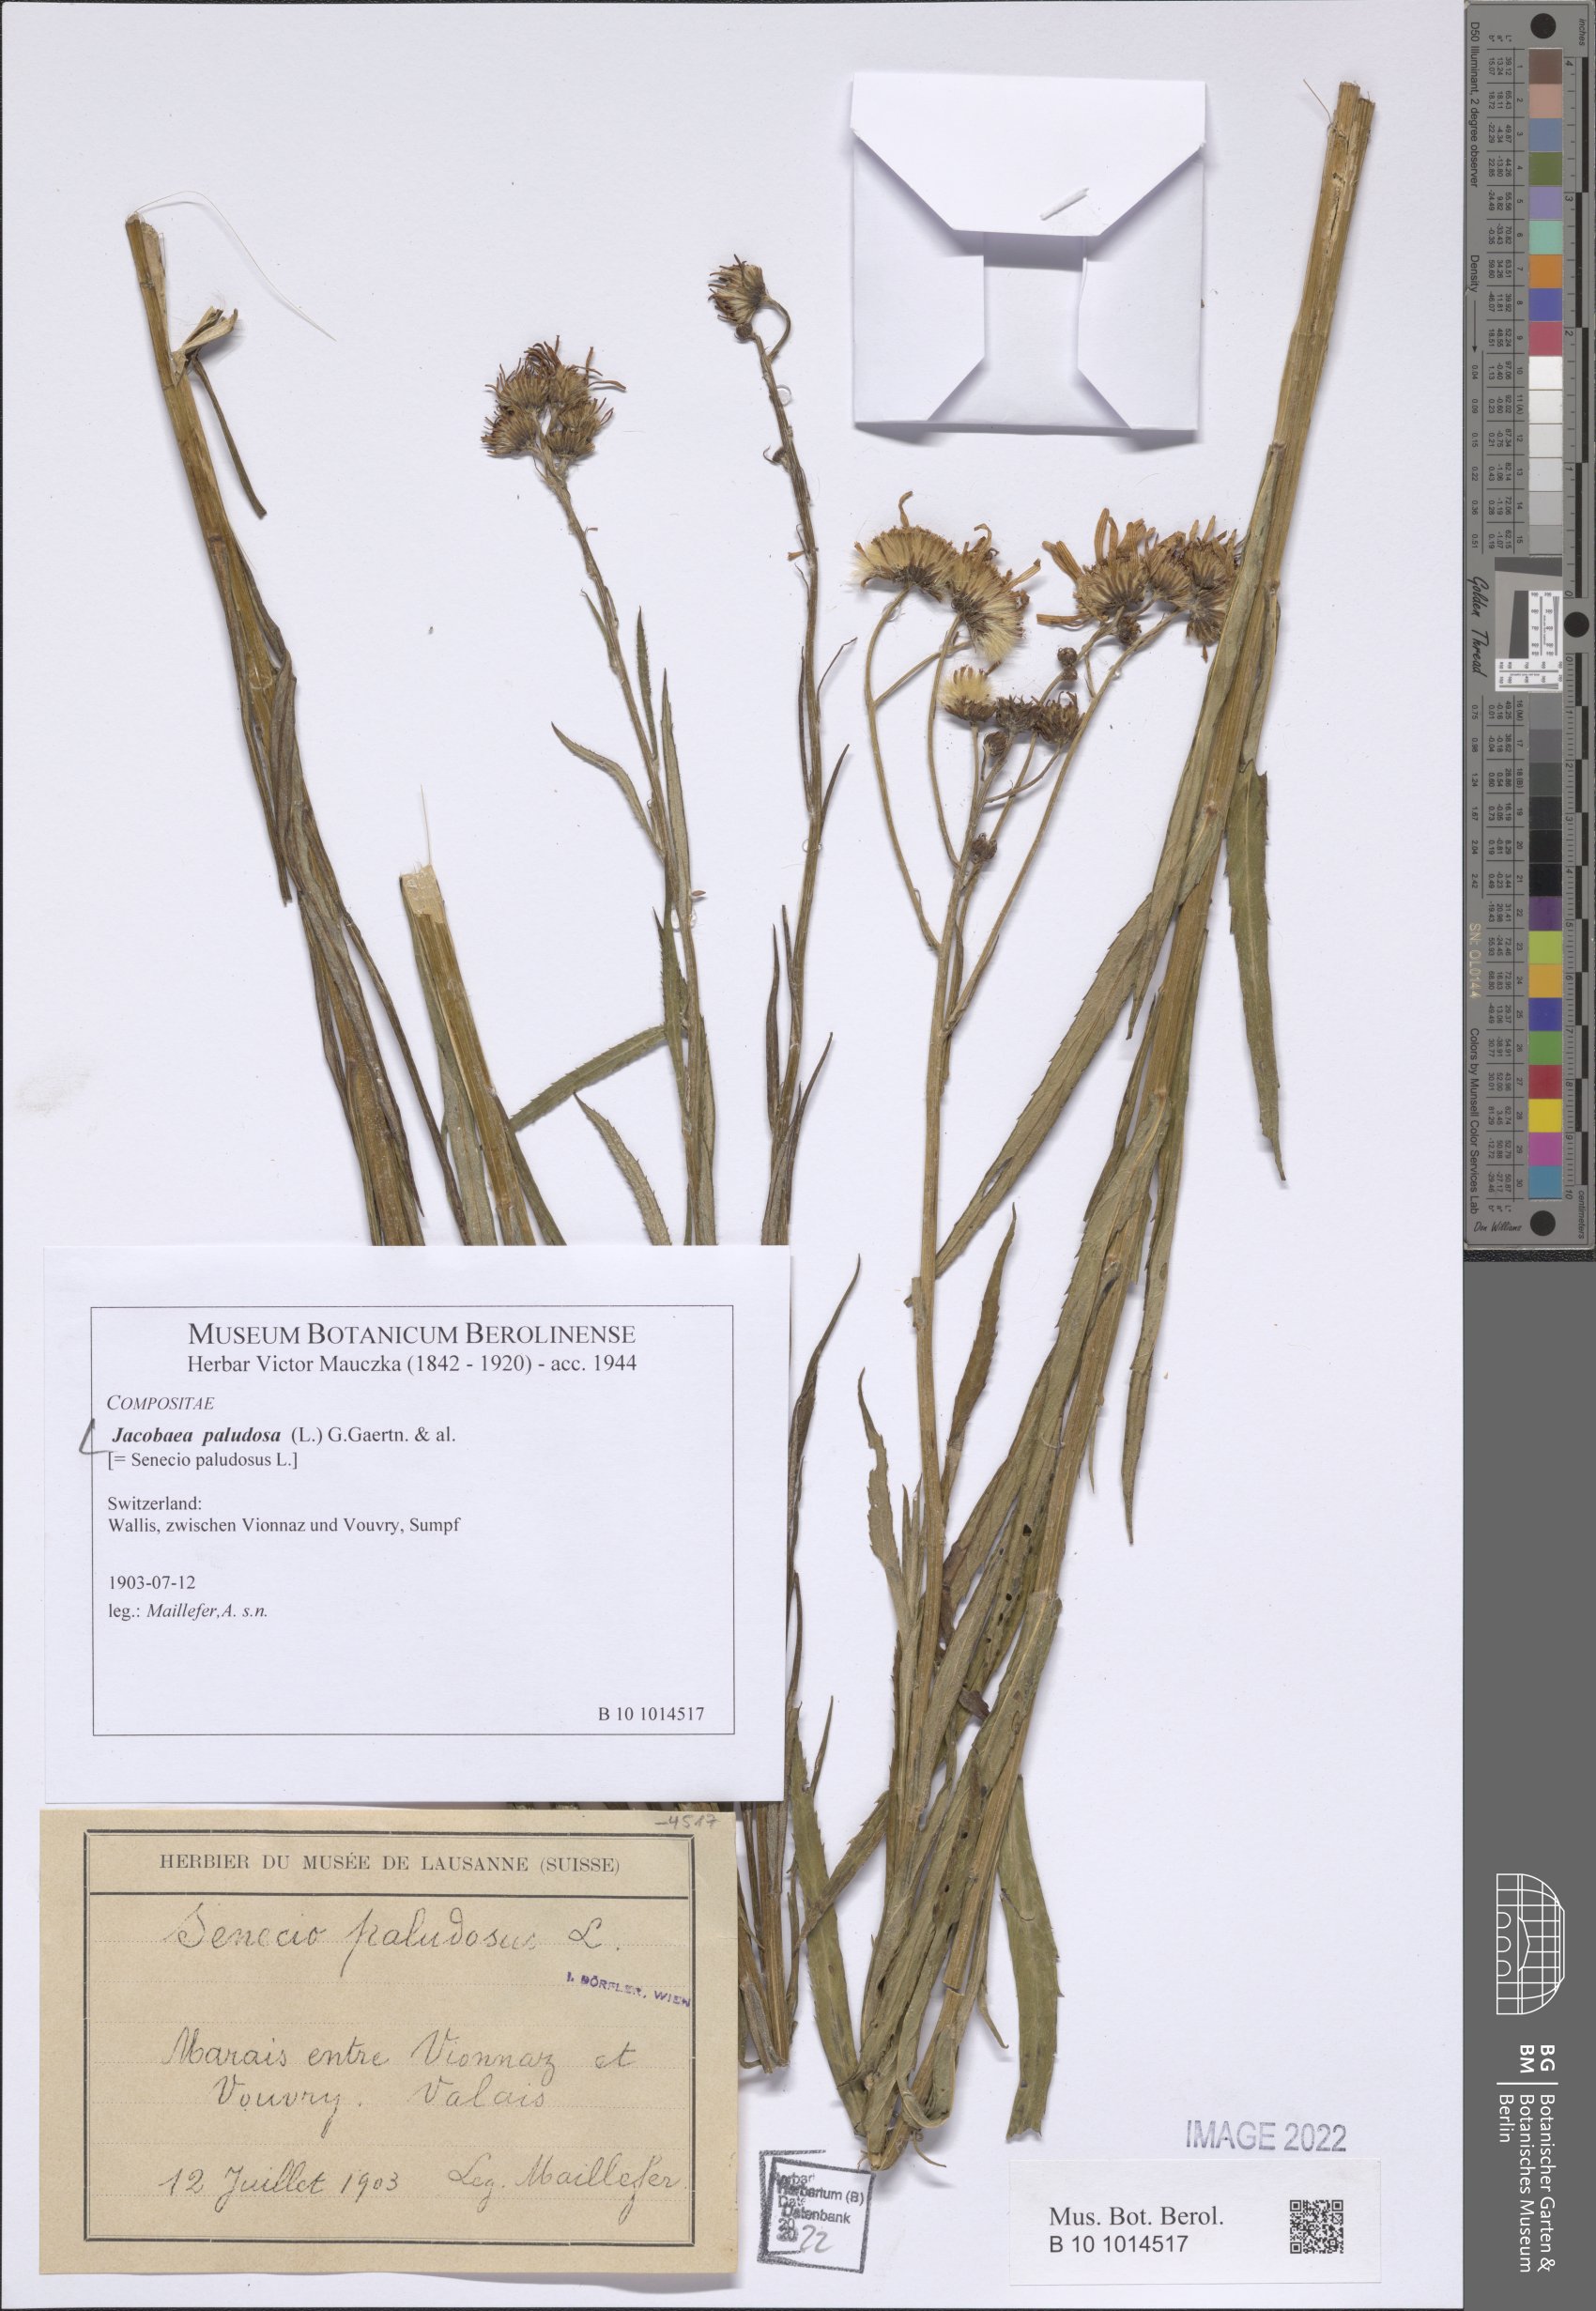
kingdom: Plantae
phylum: Tracheophyta
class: Magnoliopsida
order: Asterales
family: Asteraceae
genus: Jacobaea
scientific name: Jacobaea paludosa
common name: Fen ragwort
